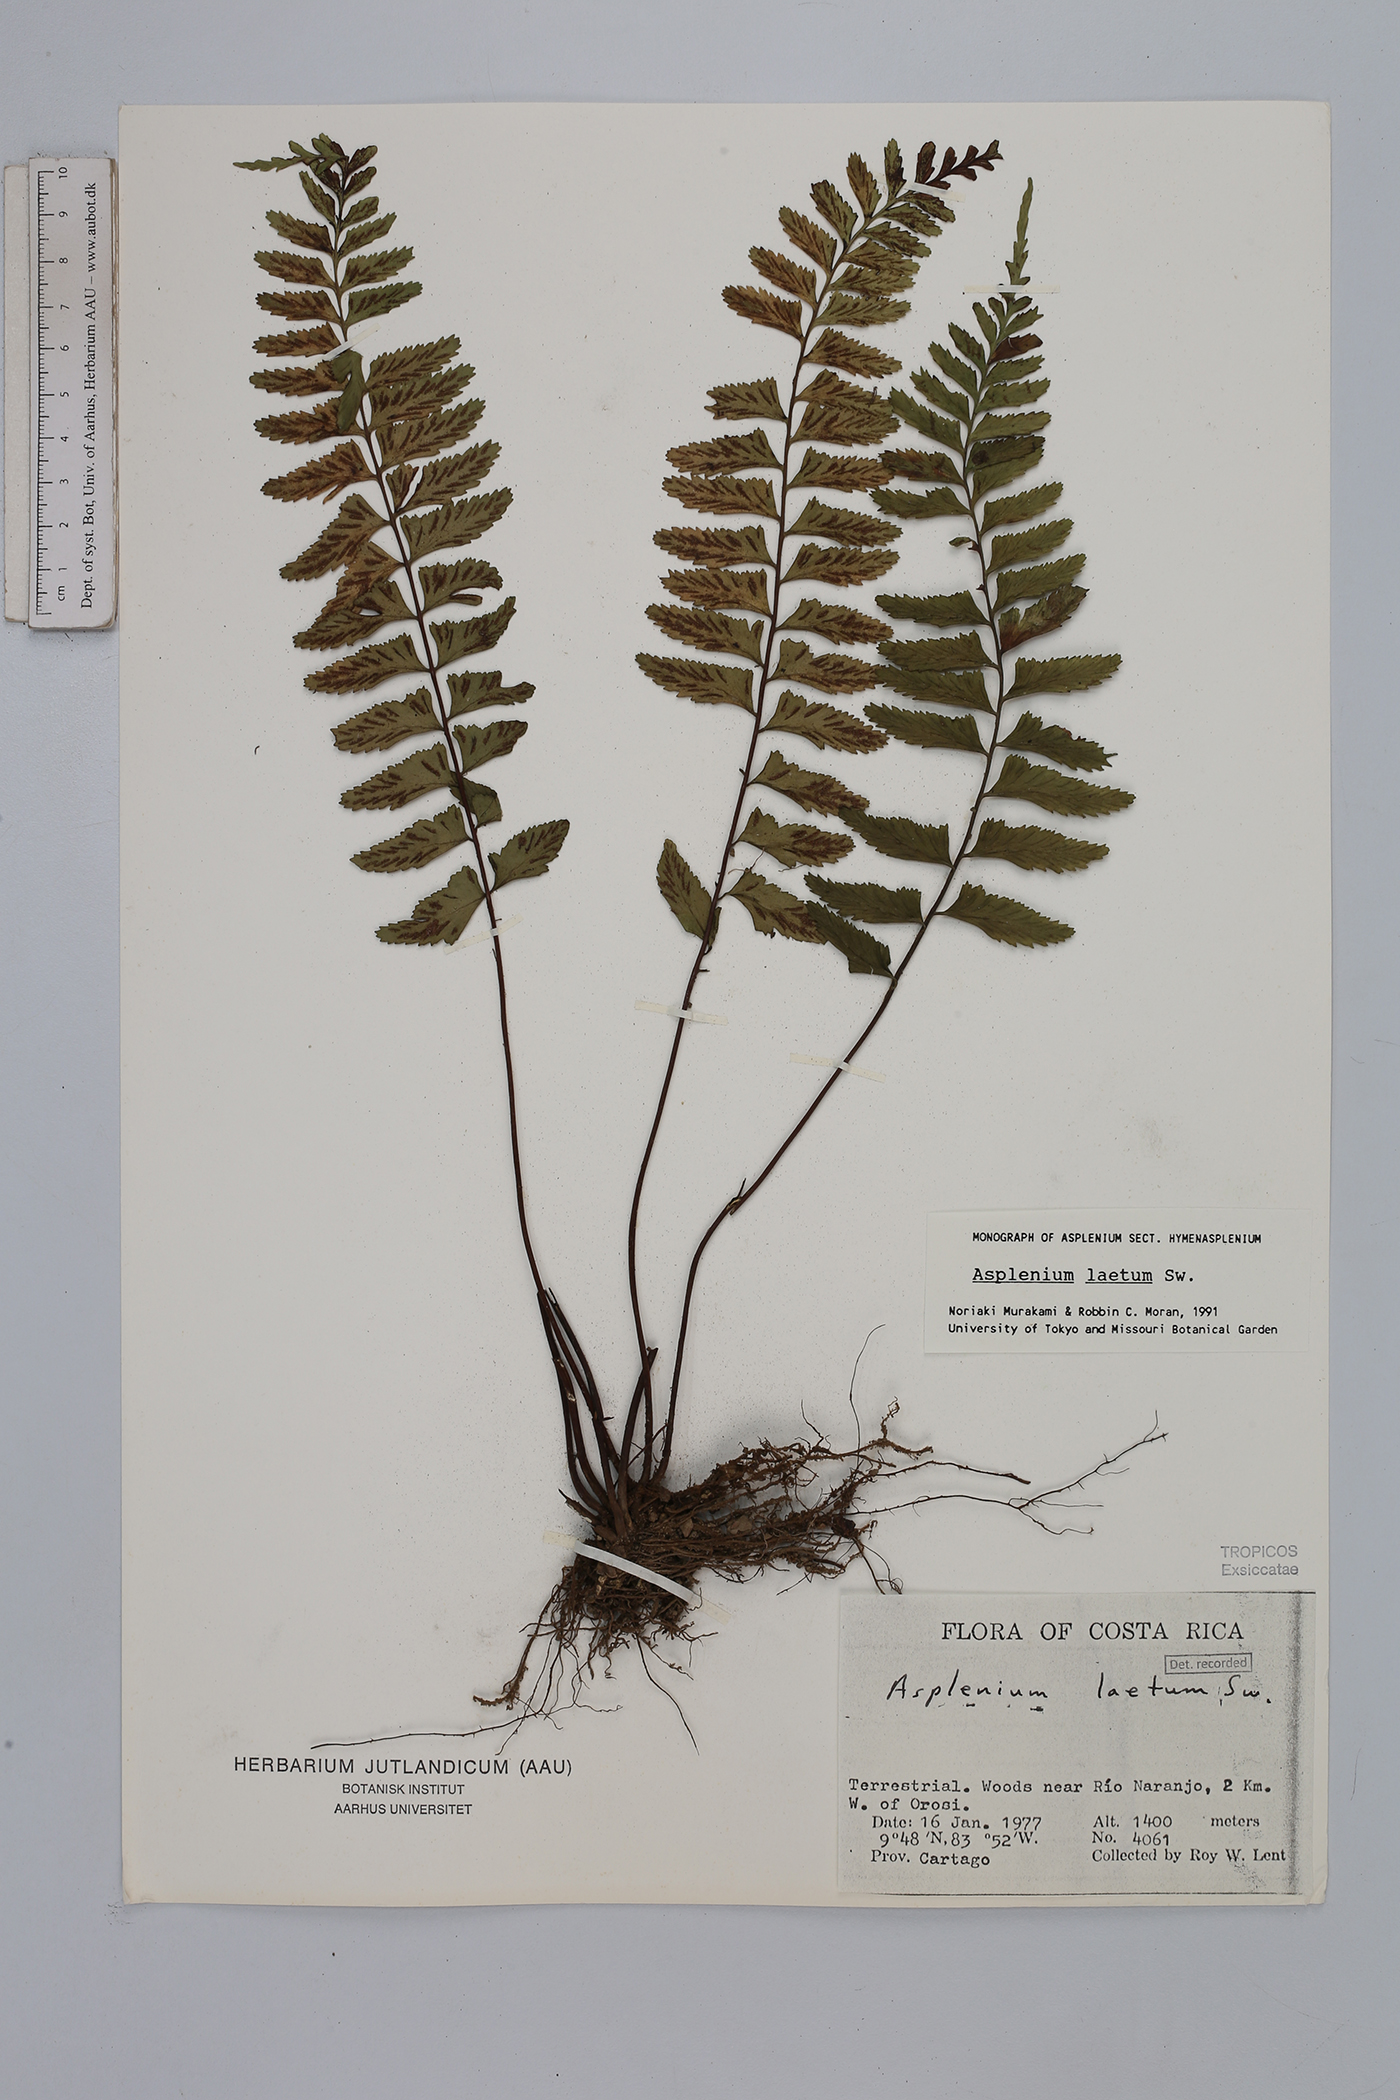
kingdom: Plantae
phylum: Tracheophyta
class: Polypodiopsida
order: Polypodiales
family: Aspleniaceae
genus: Hymenasplenium
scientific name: Hymenasplenium laetum
